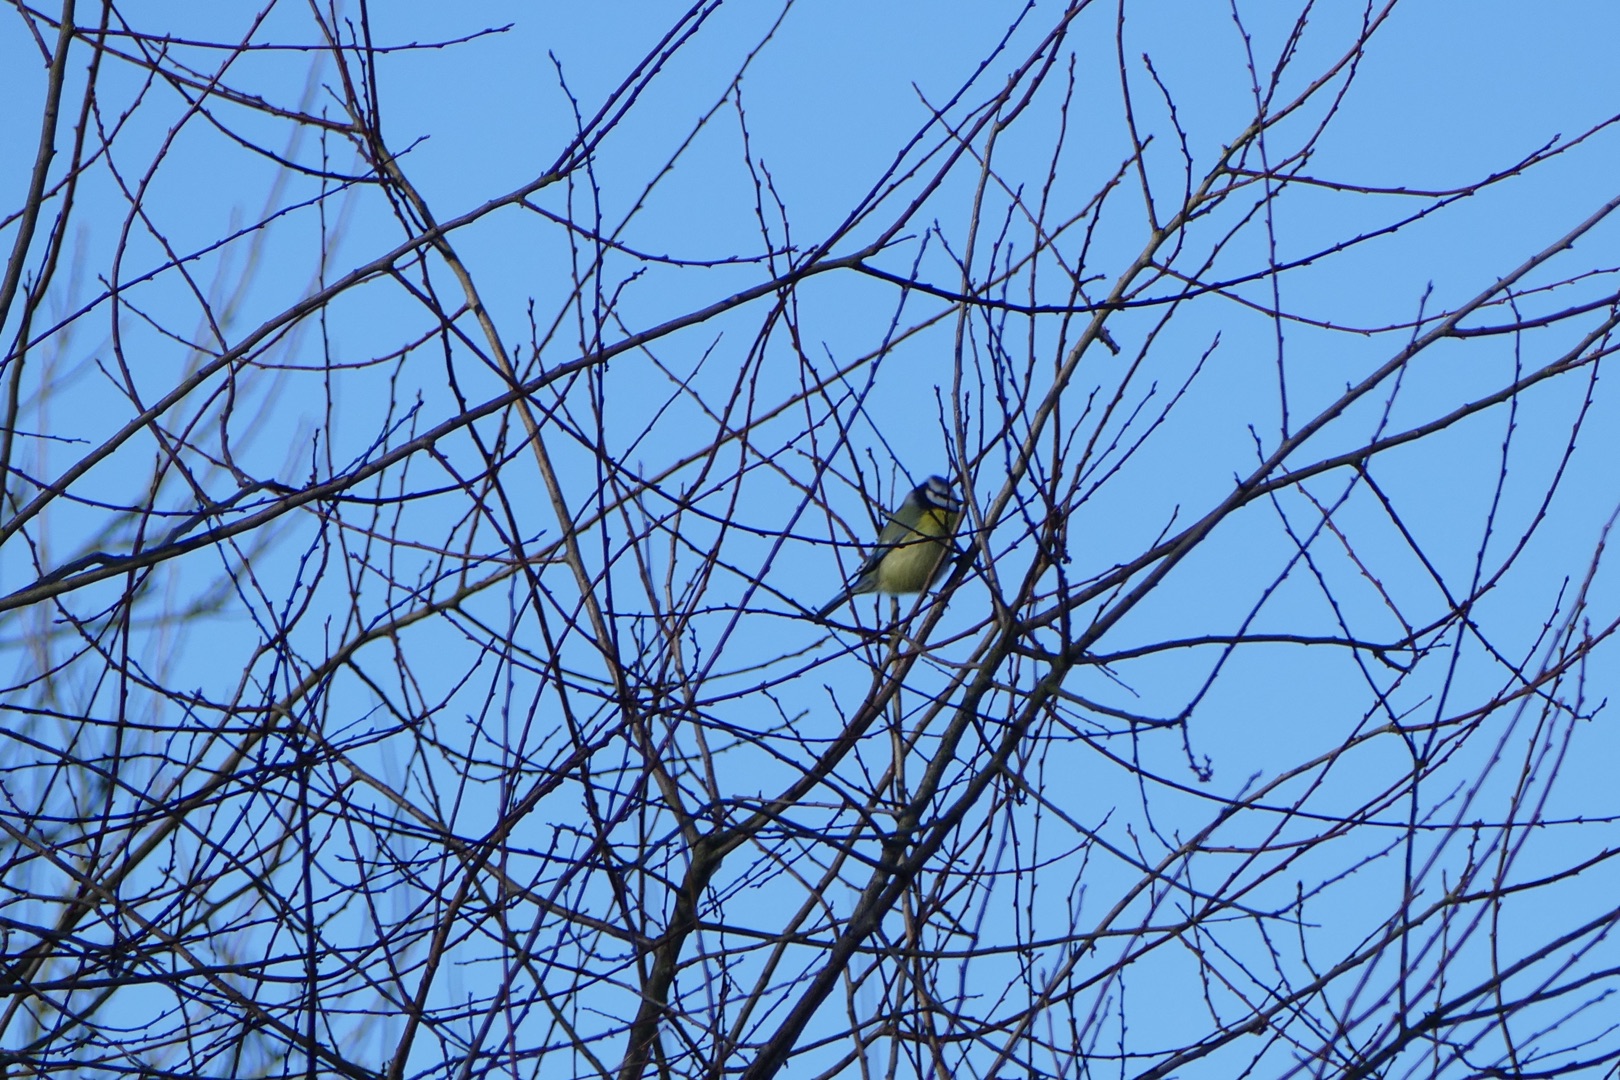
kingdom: Animalia
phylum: Chordata
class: Aves
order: Passeriformes
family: Paridae
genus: Cyanistes
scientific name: Cyanistes caeruleus
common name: Blåmejse
